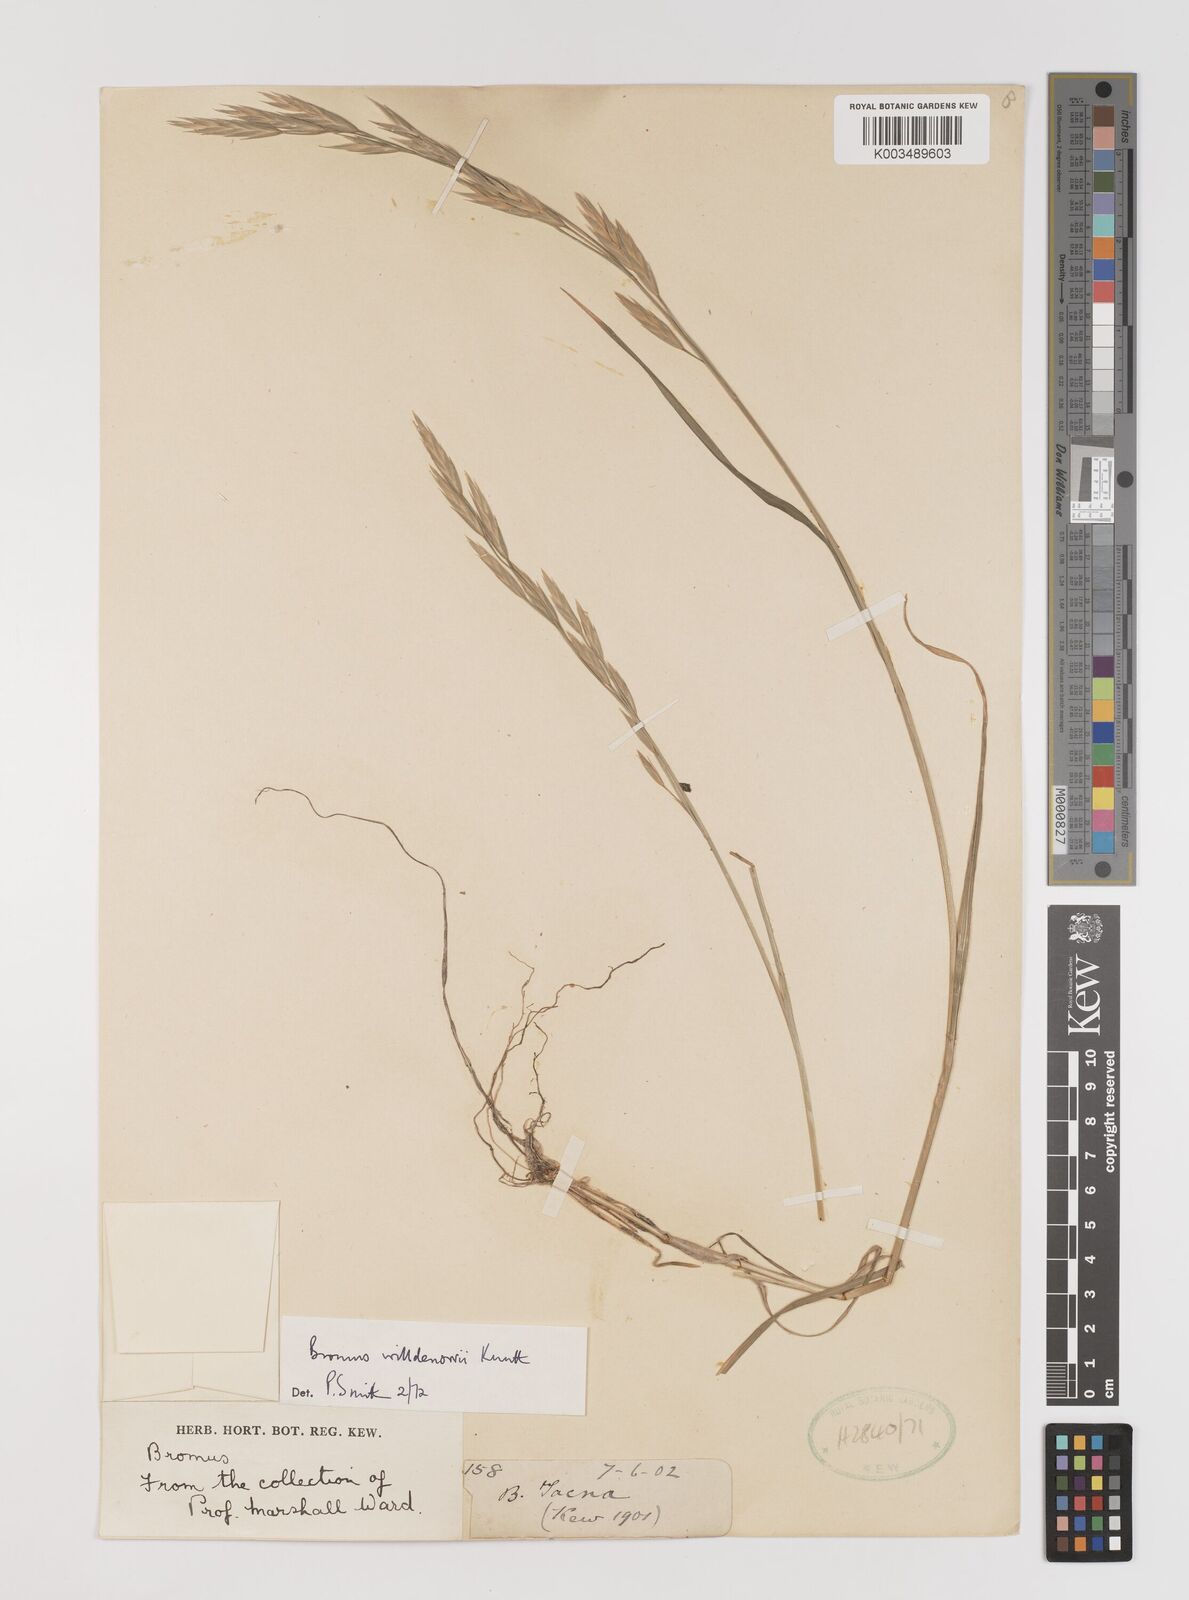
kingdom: Plantae
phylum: Tracheophyta
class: Liliopsida
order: Poales
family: Poaceae
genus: Bromus
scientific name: Bromus catharticus
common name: Rescuegrass
